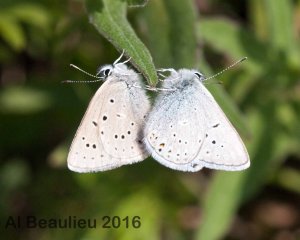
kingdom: Animalia
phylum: Arthropoda
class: Insecta
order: Lepidoptera
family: Lycaenidae
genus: Plebejus
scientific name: Plebejus saepiolus
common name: Greenish Blue
